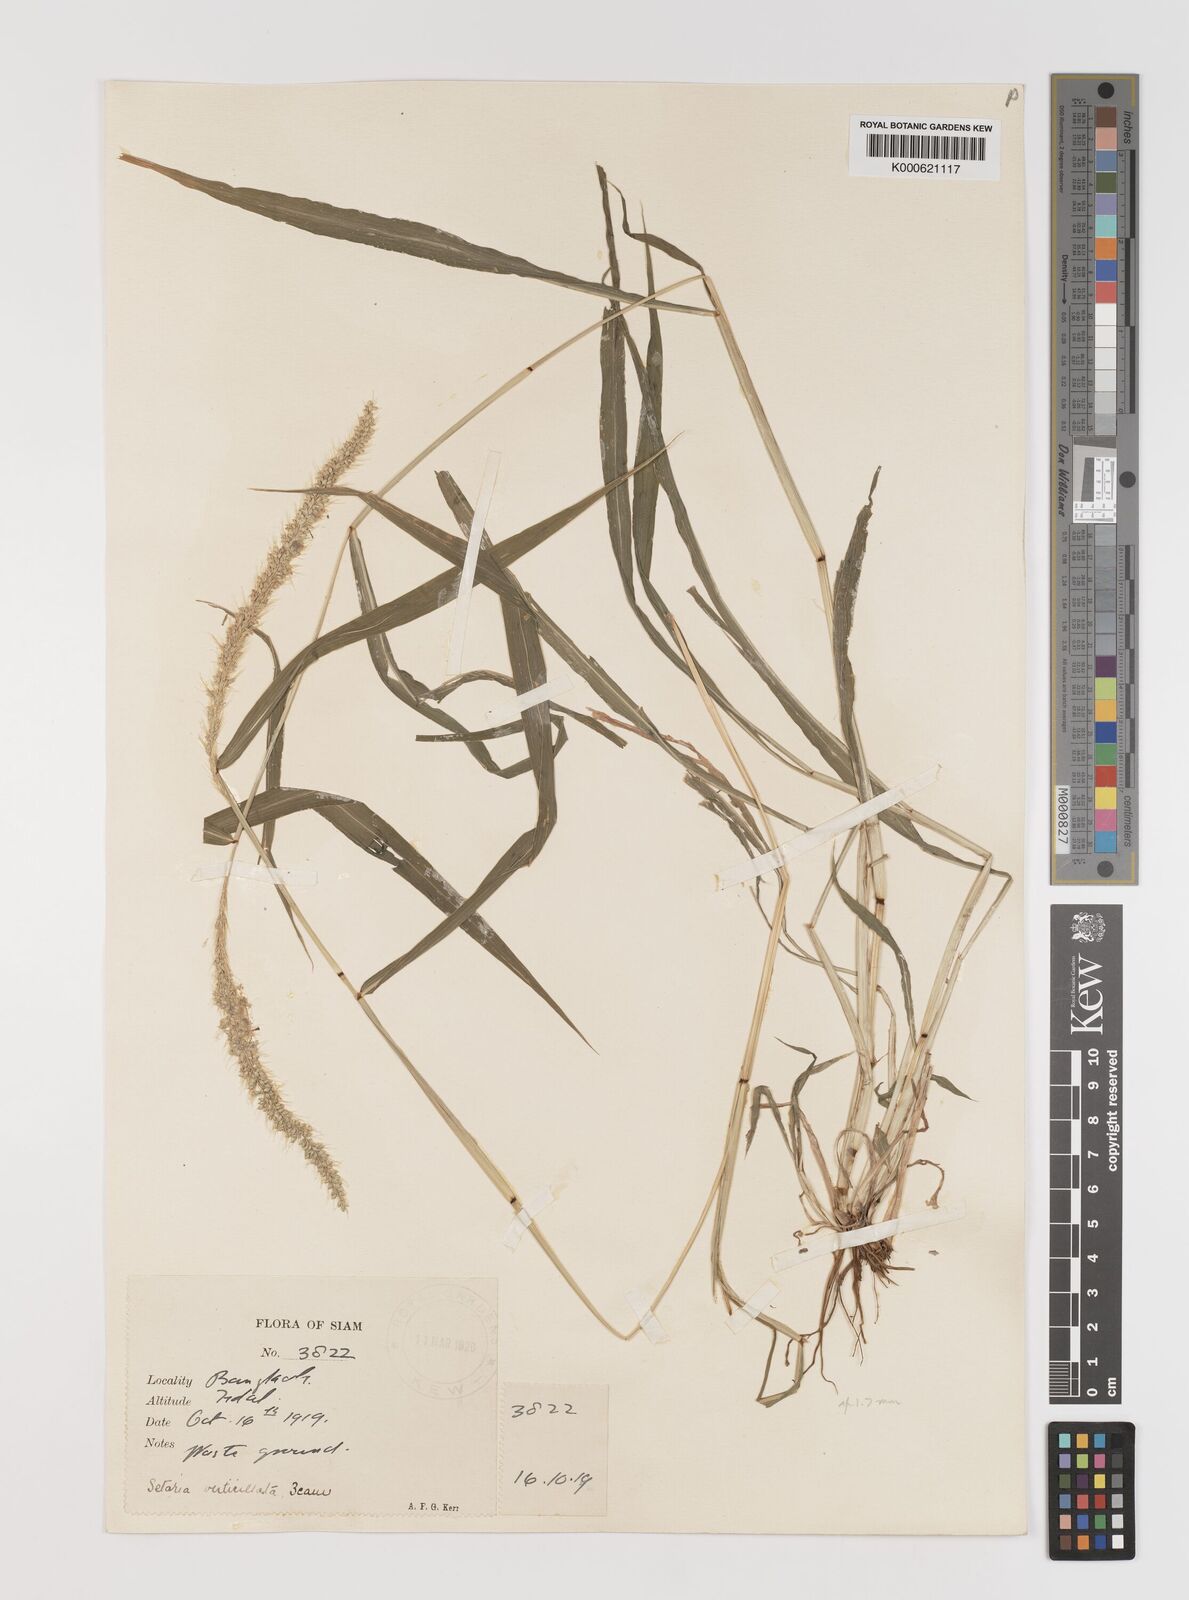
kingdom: Plantae
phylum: Tracheophyta
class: Liliopsida
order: Poales
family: Poaceae
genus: Setaria
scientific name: Setaria verticillata
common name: Hooked bristlegrass
